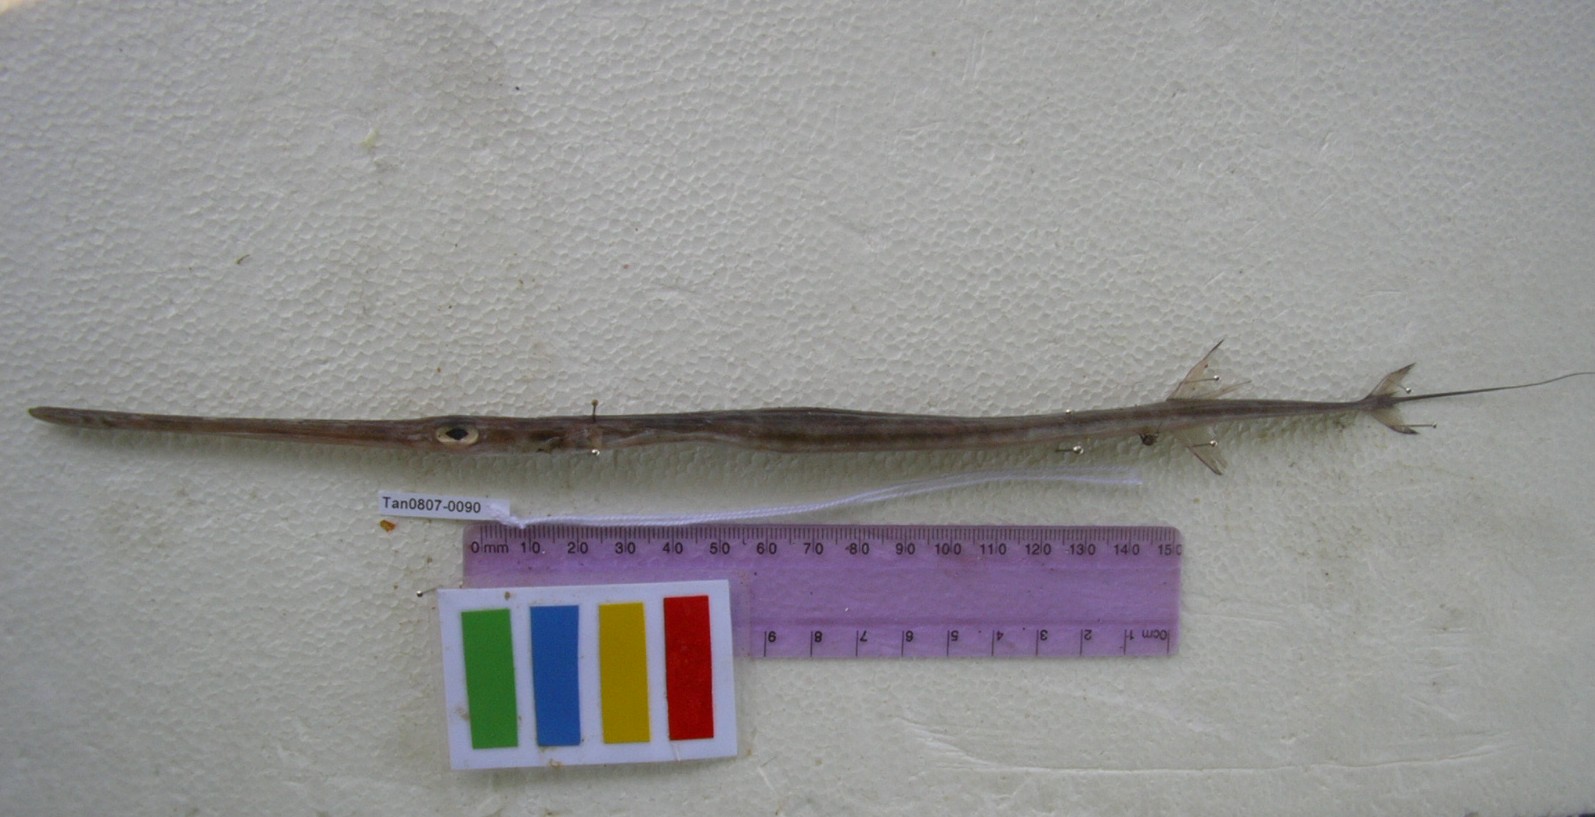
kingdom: Animalia
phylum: Chordata
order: Syngnathiformes
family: Fistulariidae
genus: Fistularia
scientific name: Fistularia commersonii
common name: Bluespotted cornetfish
